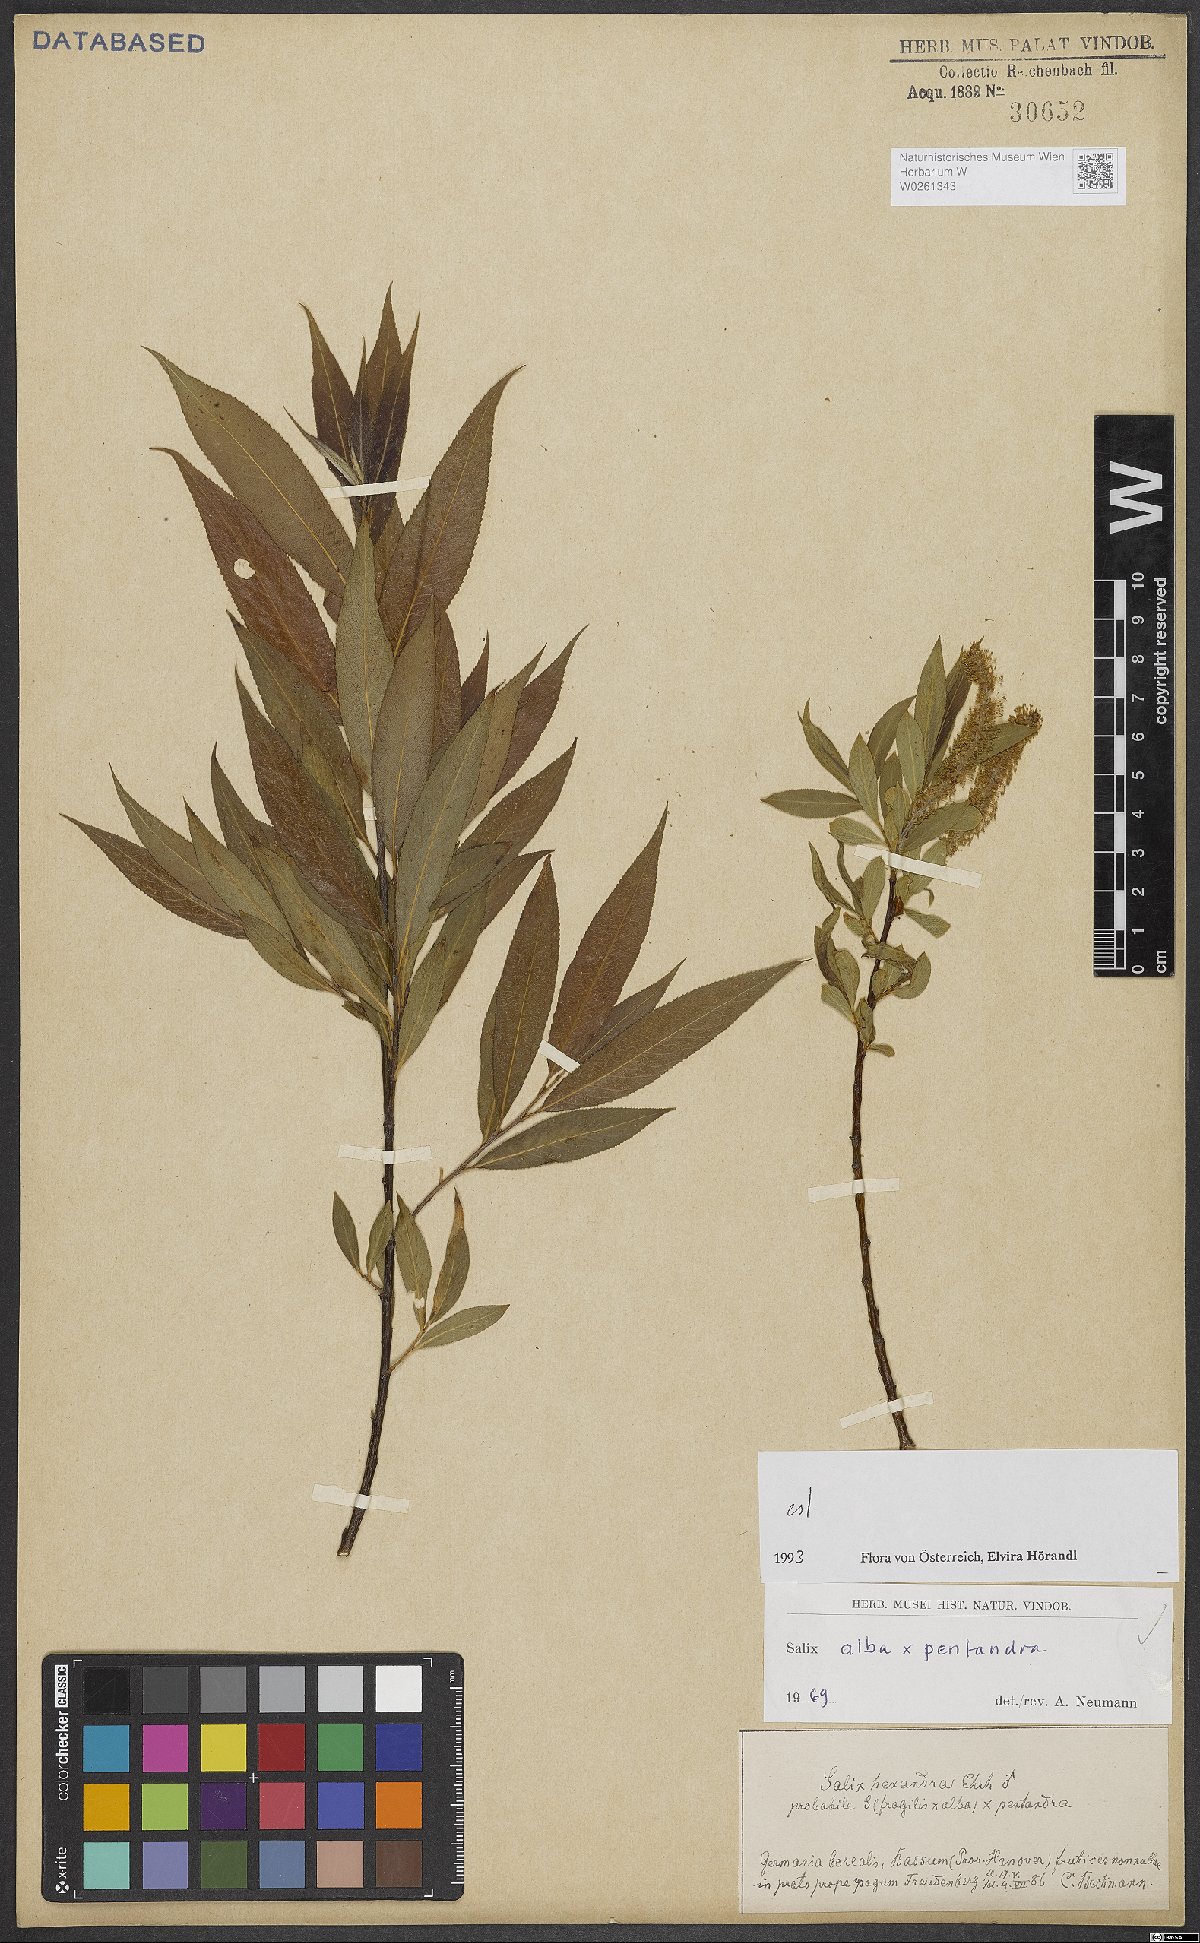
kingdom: Plantae
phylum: Tracheophyta
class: Magnoliopsida
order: Malpighiales
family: Salicaceae
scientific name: Salicaceae
